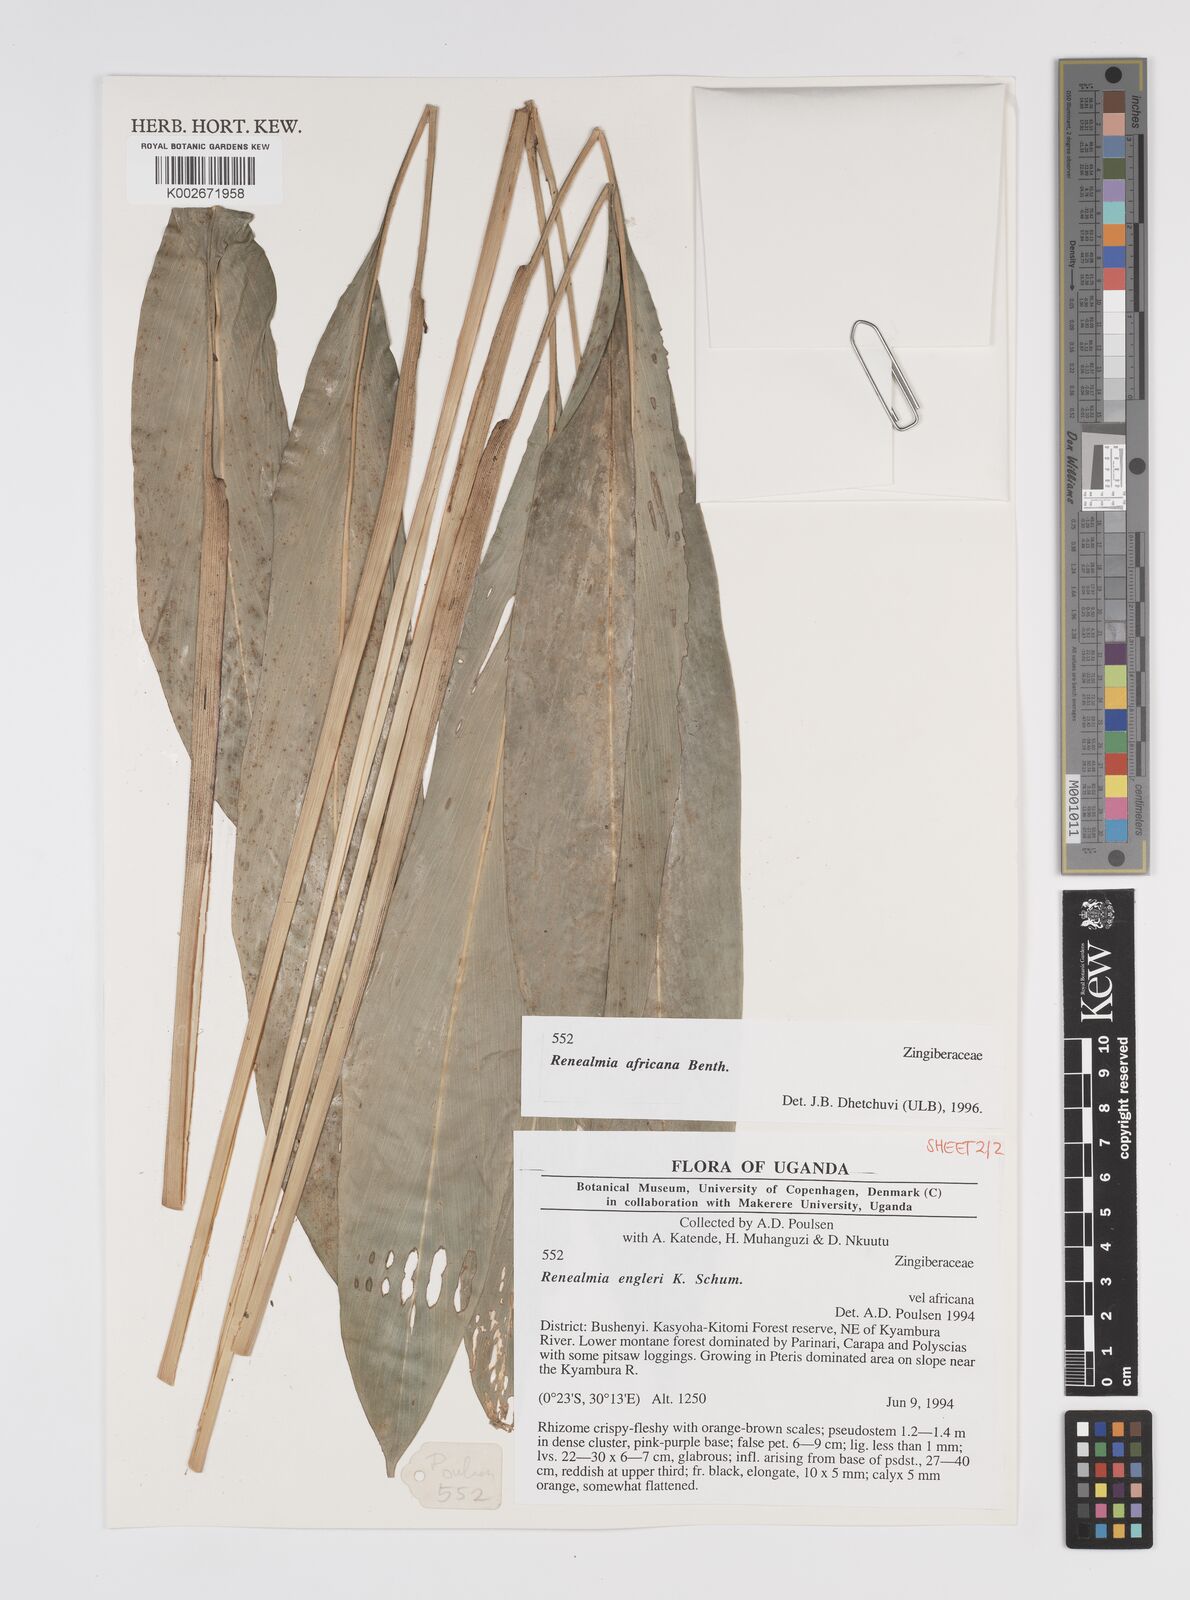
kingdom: Plantae
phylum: Tracheophyta
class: Liliopsida
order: Zingiberales
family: Zingiberaceae
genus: Renealmia
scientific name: Renealmia africana
